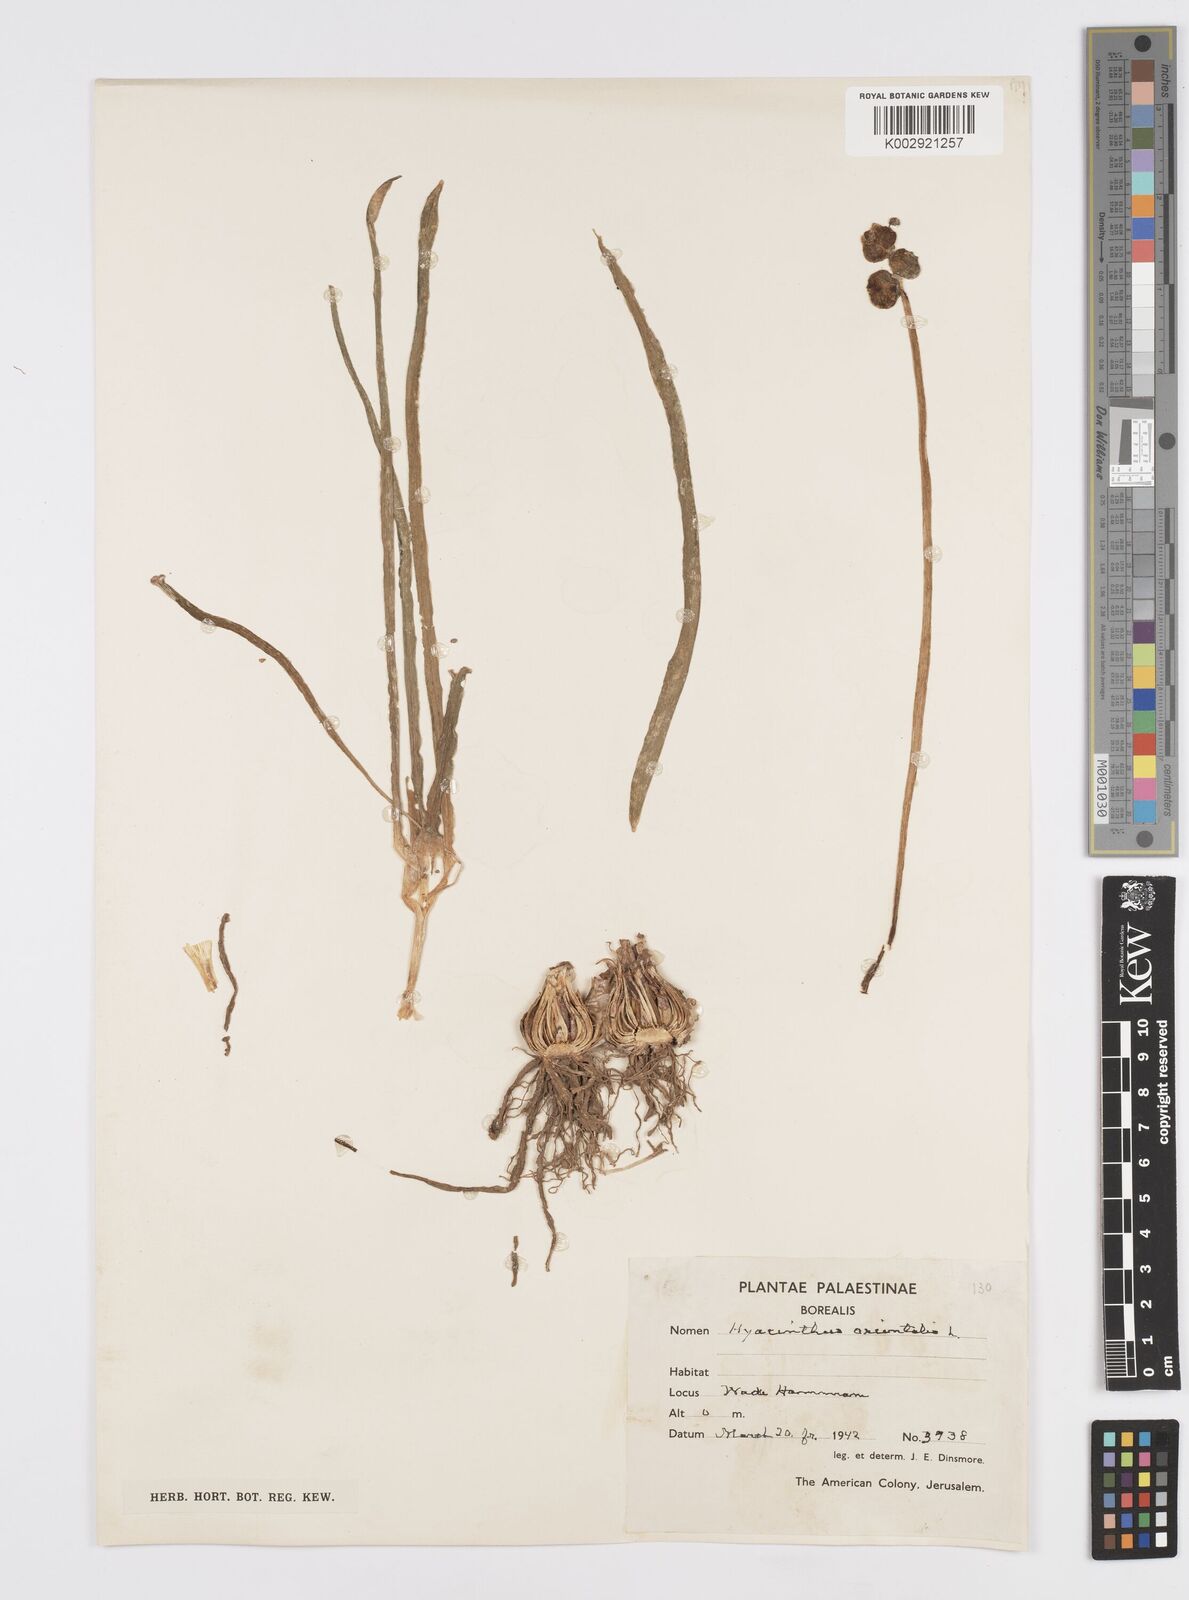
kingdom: Plantae
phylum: Tracheophyta
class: Liliopsida
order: Asparagales
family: Asparagaceae
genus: Hyacinthus
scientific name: Hyacinthus orientalis
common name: Hyacinth
